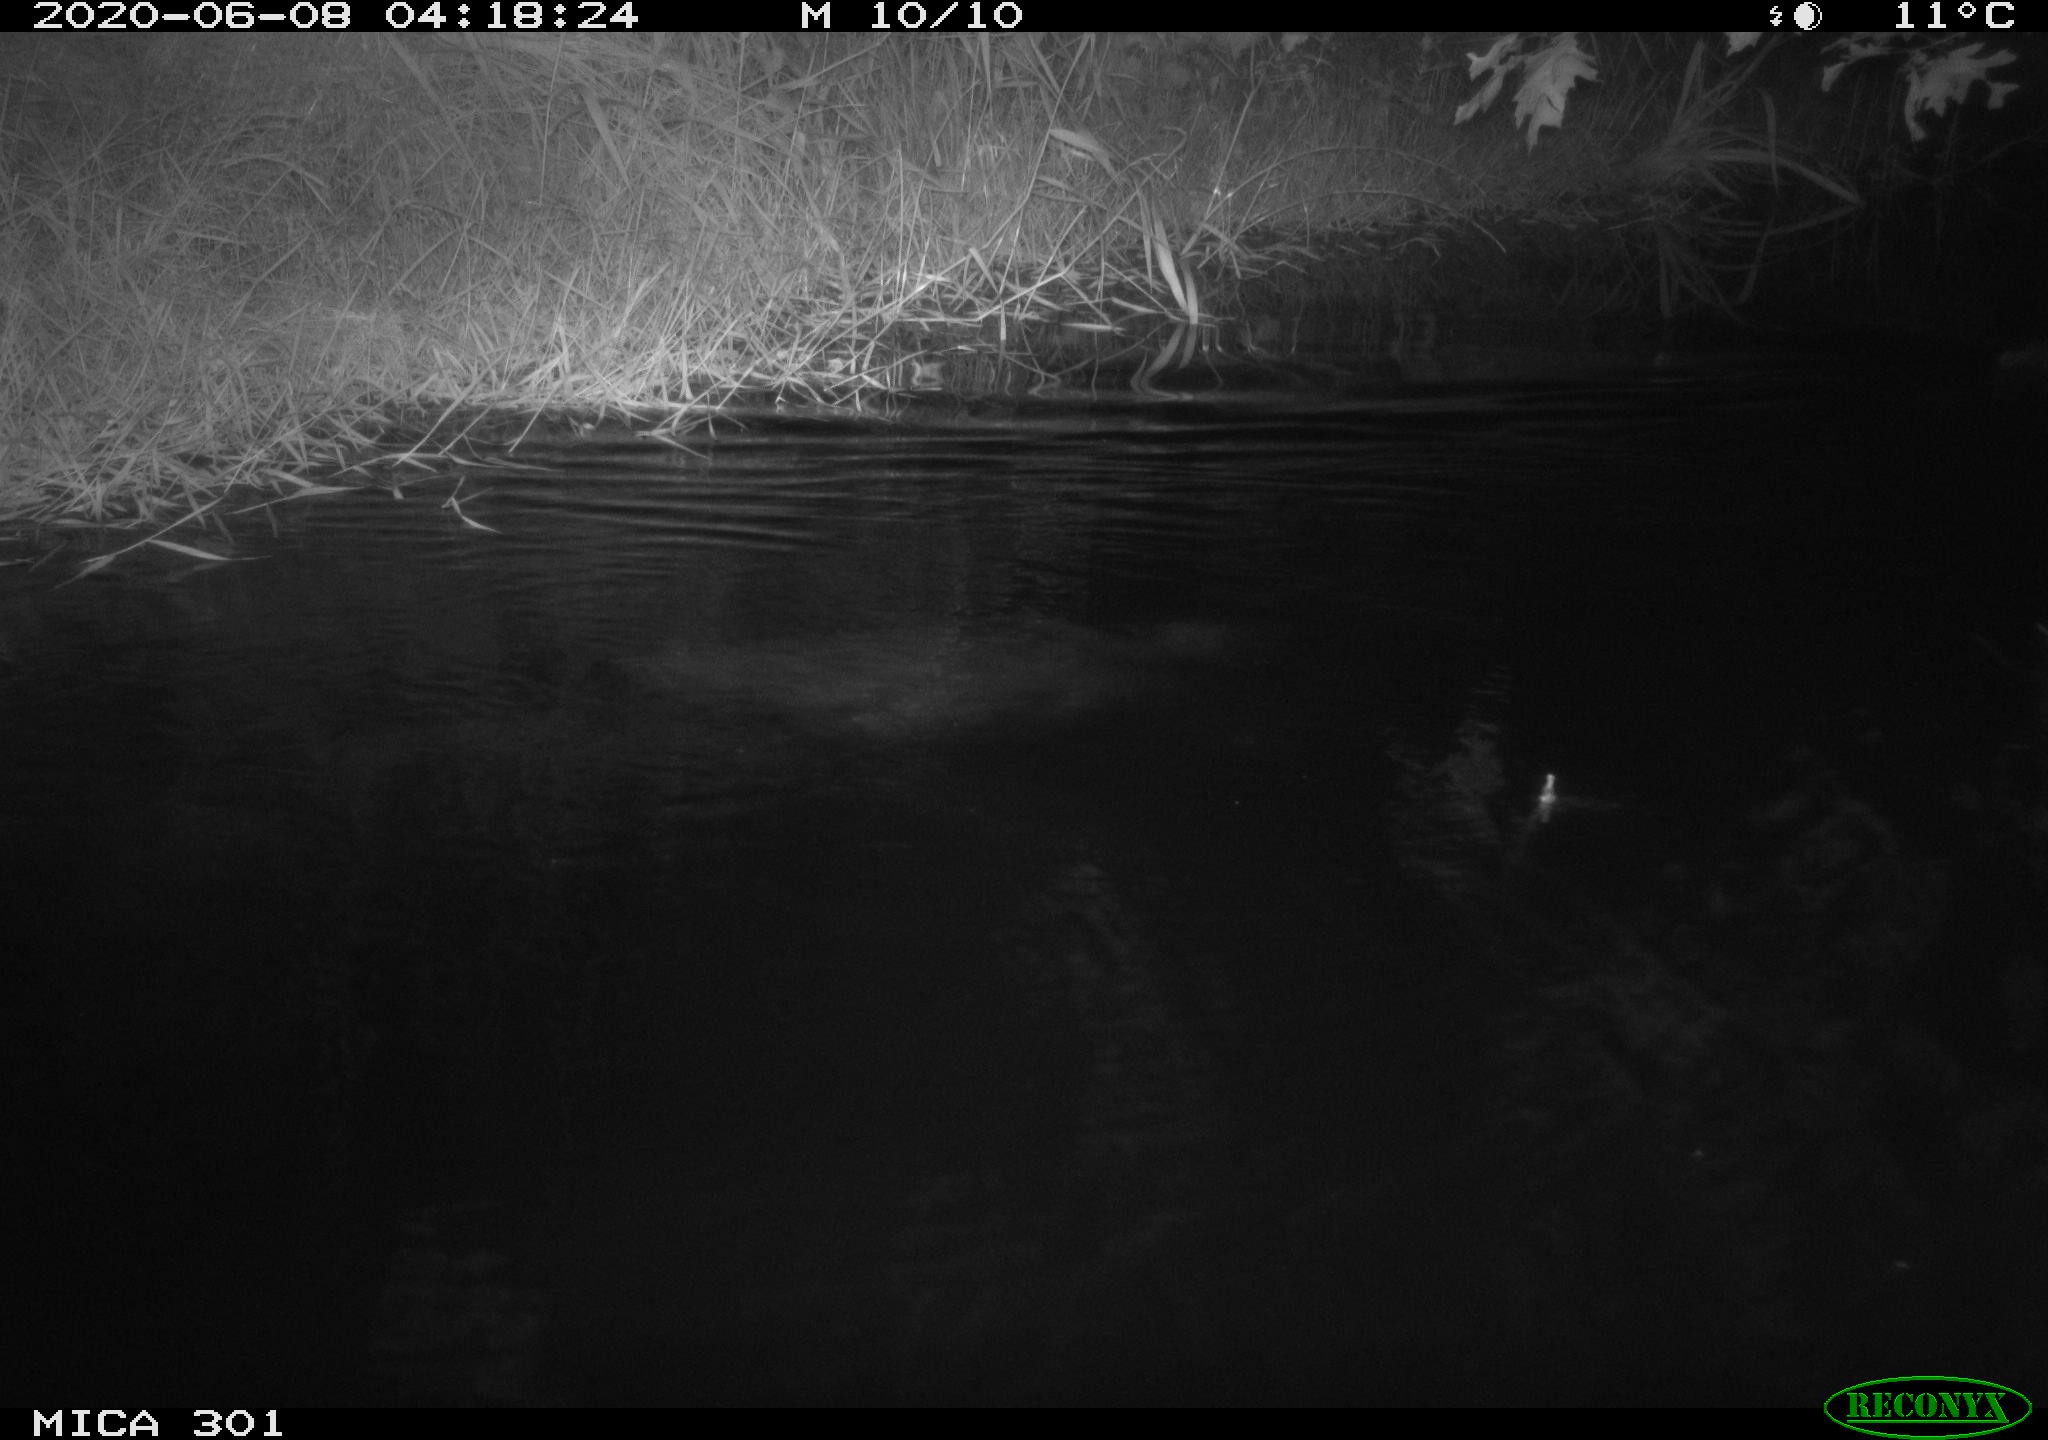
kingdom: Animalia
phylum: Chordata
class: Mammalia
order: Rodentia
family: Castoridae
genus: Castor
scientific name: Castor fiber
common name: Eurasian beaver
